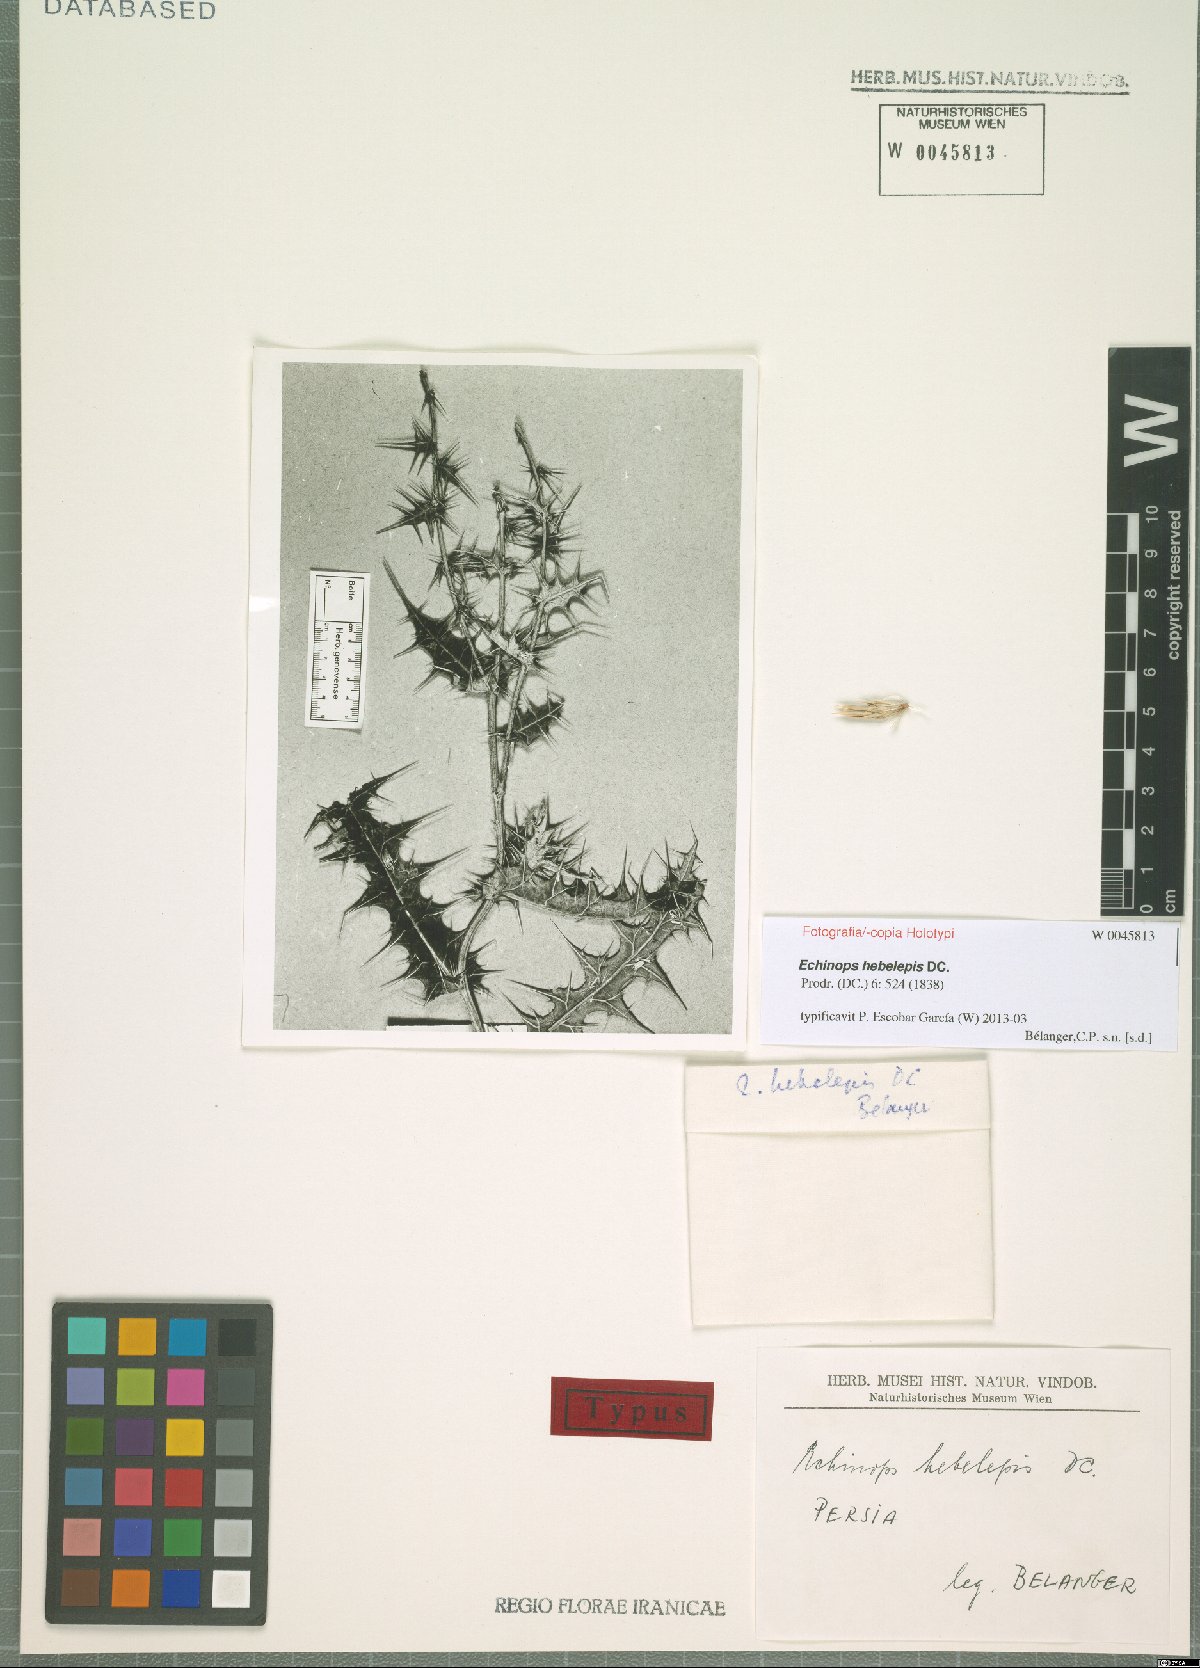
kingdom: Plantae
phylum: Tracheophyta
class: Magnoliopsida
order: Asterales
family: Asteraceae
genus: Echinops
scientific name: Echinops hebelepis
